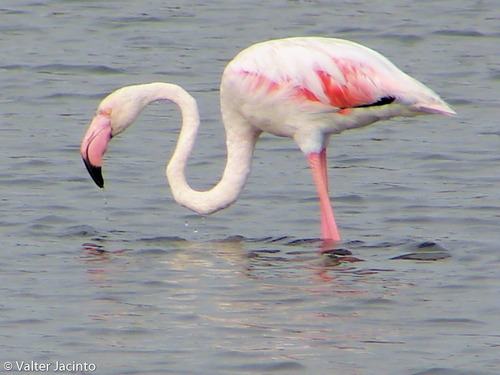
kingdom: Animalia
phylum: Chordata
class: Aves
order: Phoenicopteriformes
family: Phoenicopteridae
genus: Phoenicopterus
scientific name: Phoenicopterus roseus
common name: Greater flamingo
